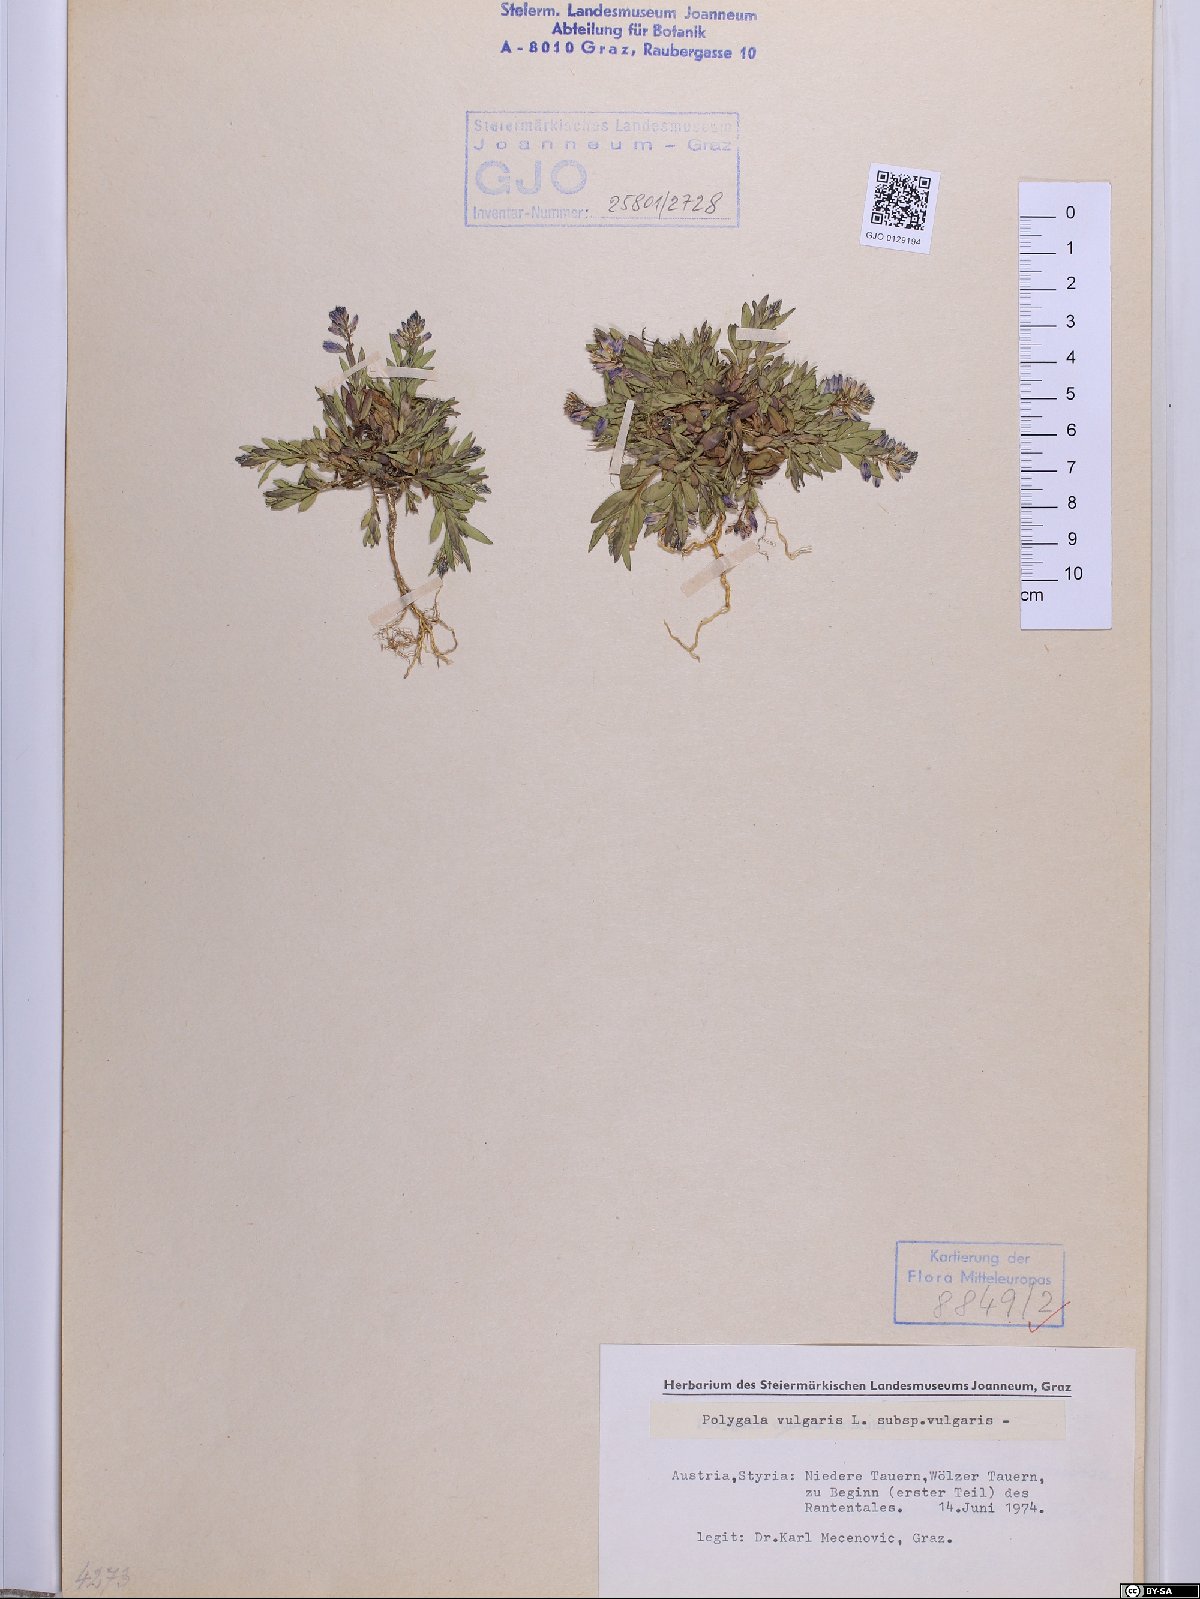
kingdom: Plantae
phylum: Tracheophyta
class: Magnoliopsida
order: Fabales
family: Polygalaceae
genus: Polygala
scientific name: Polygala vulgaris
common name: Common milkwort
